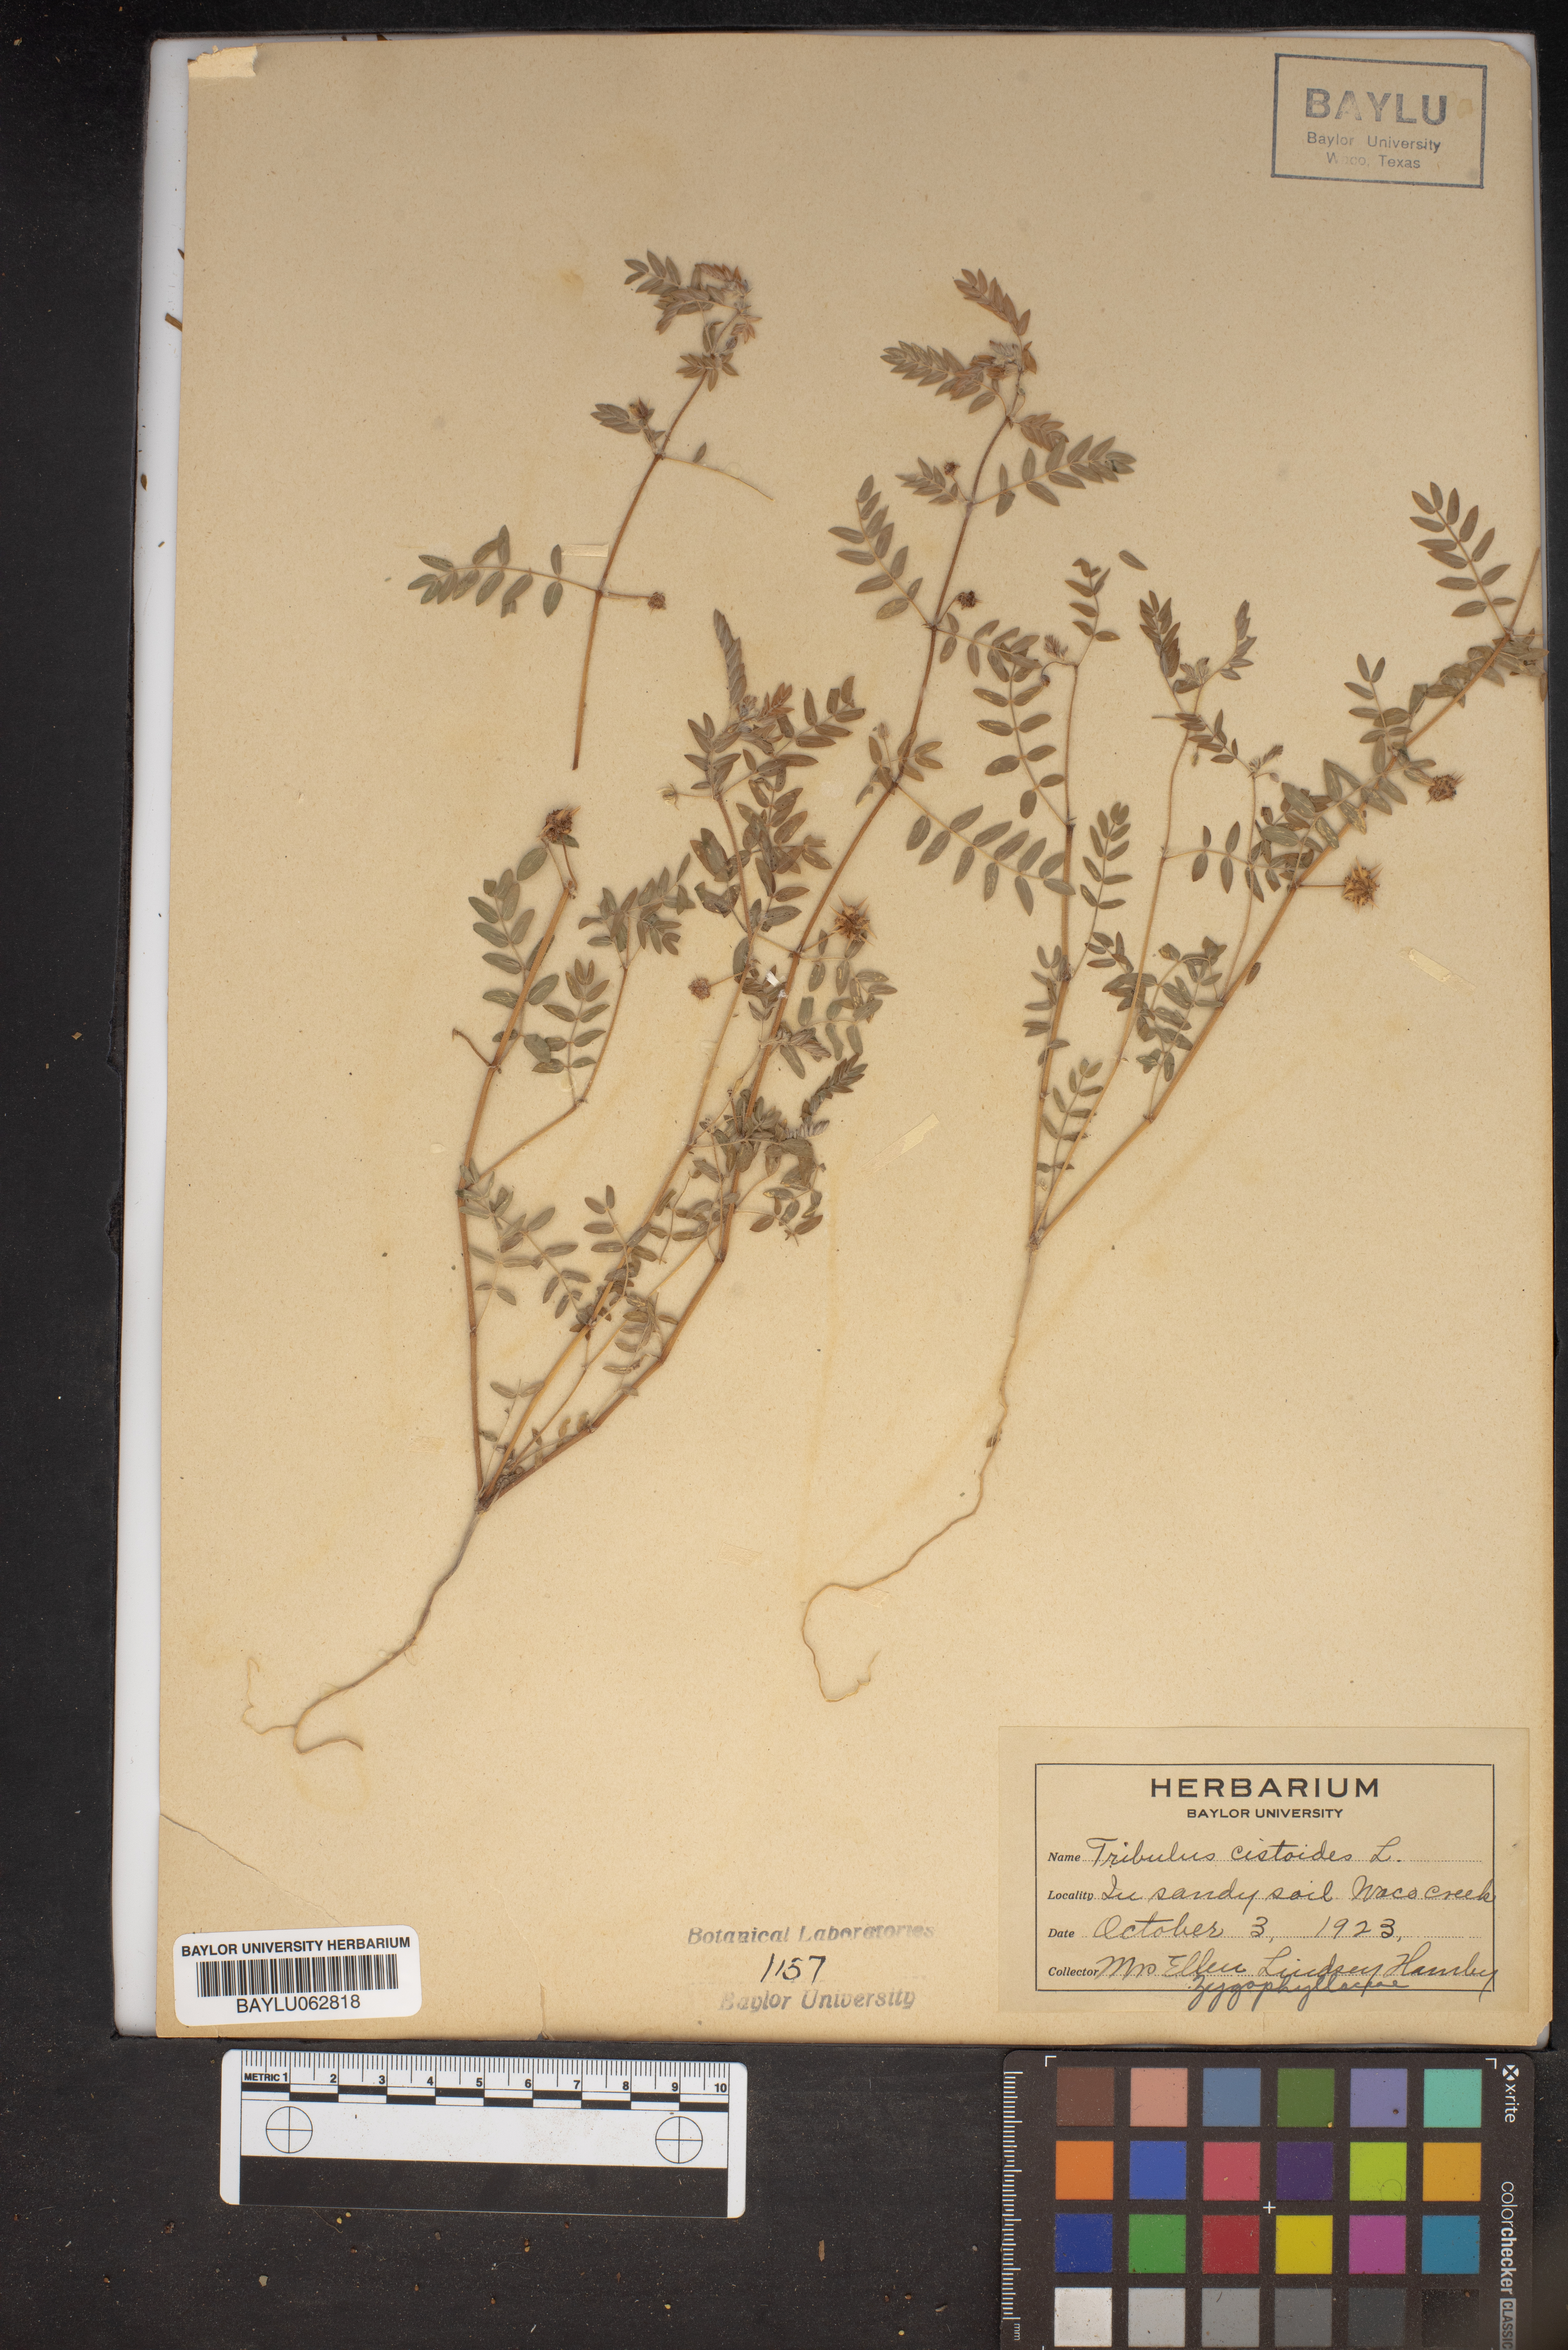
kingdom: Plantae
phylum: Tracheophyta
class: Magnoliopsida
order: Zygophyllales
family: Zygophyllaceae
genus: Tribulus
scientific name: Tribulus cistoides
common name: Jamaican feverplant
